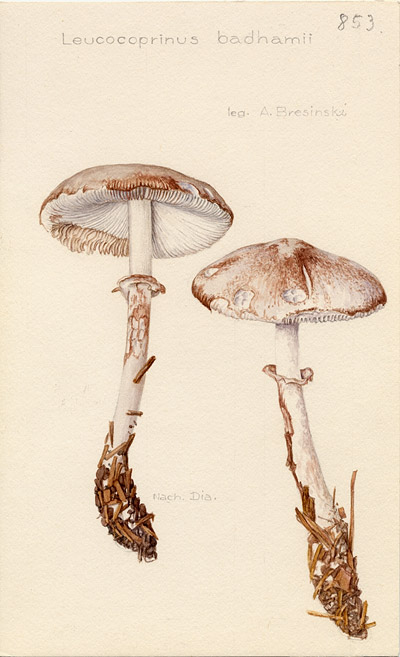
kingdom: Fungi
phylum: Basidiomycota
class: Agaricomycetes
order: Agaricales
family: Agaricaceae
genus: Leucoagaricus
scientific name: Leucoagaricus badhamii
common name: Blushing dapperling
